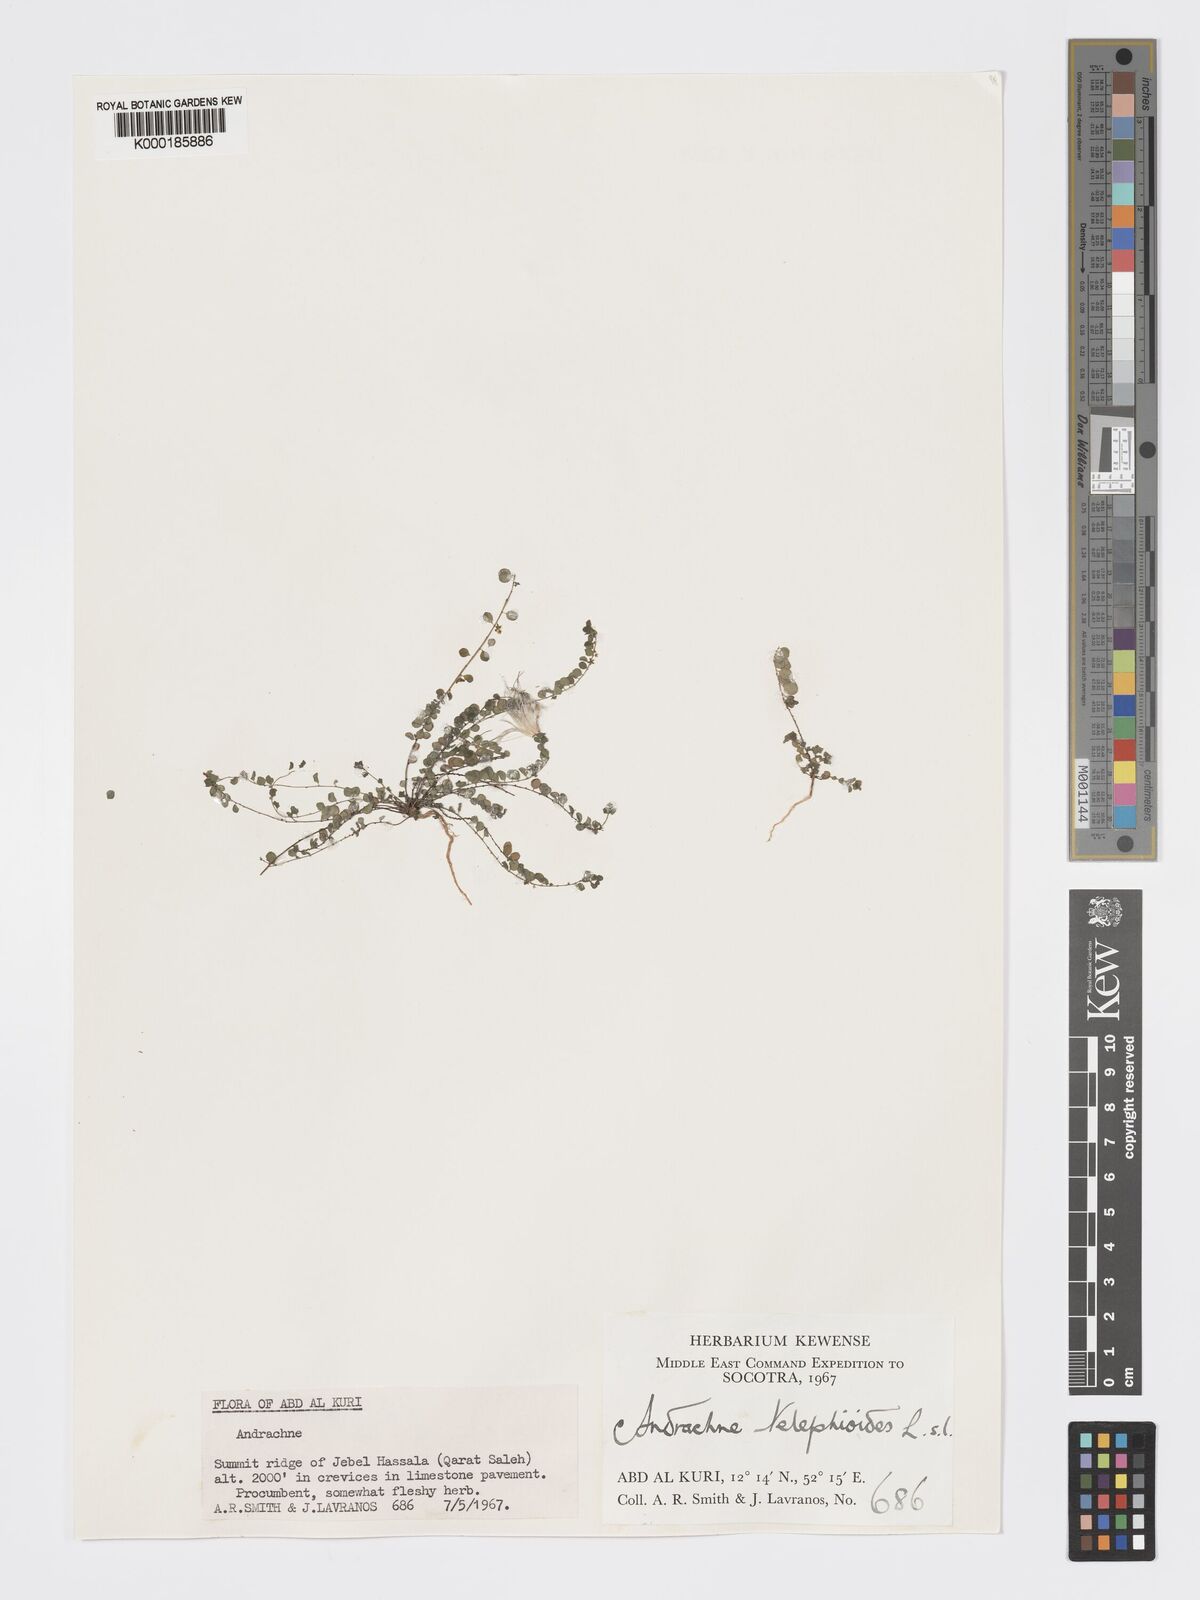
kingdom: Plantae
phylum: Tracheophyta
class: Magnoliopsida
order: Malpighiales
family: Phyllanthaceae
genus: Andrachne
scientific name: Andrachne telephioides
